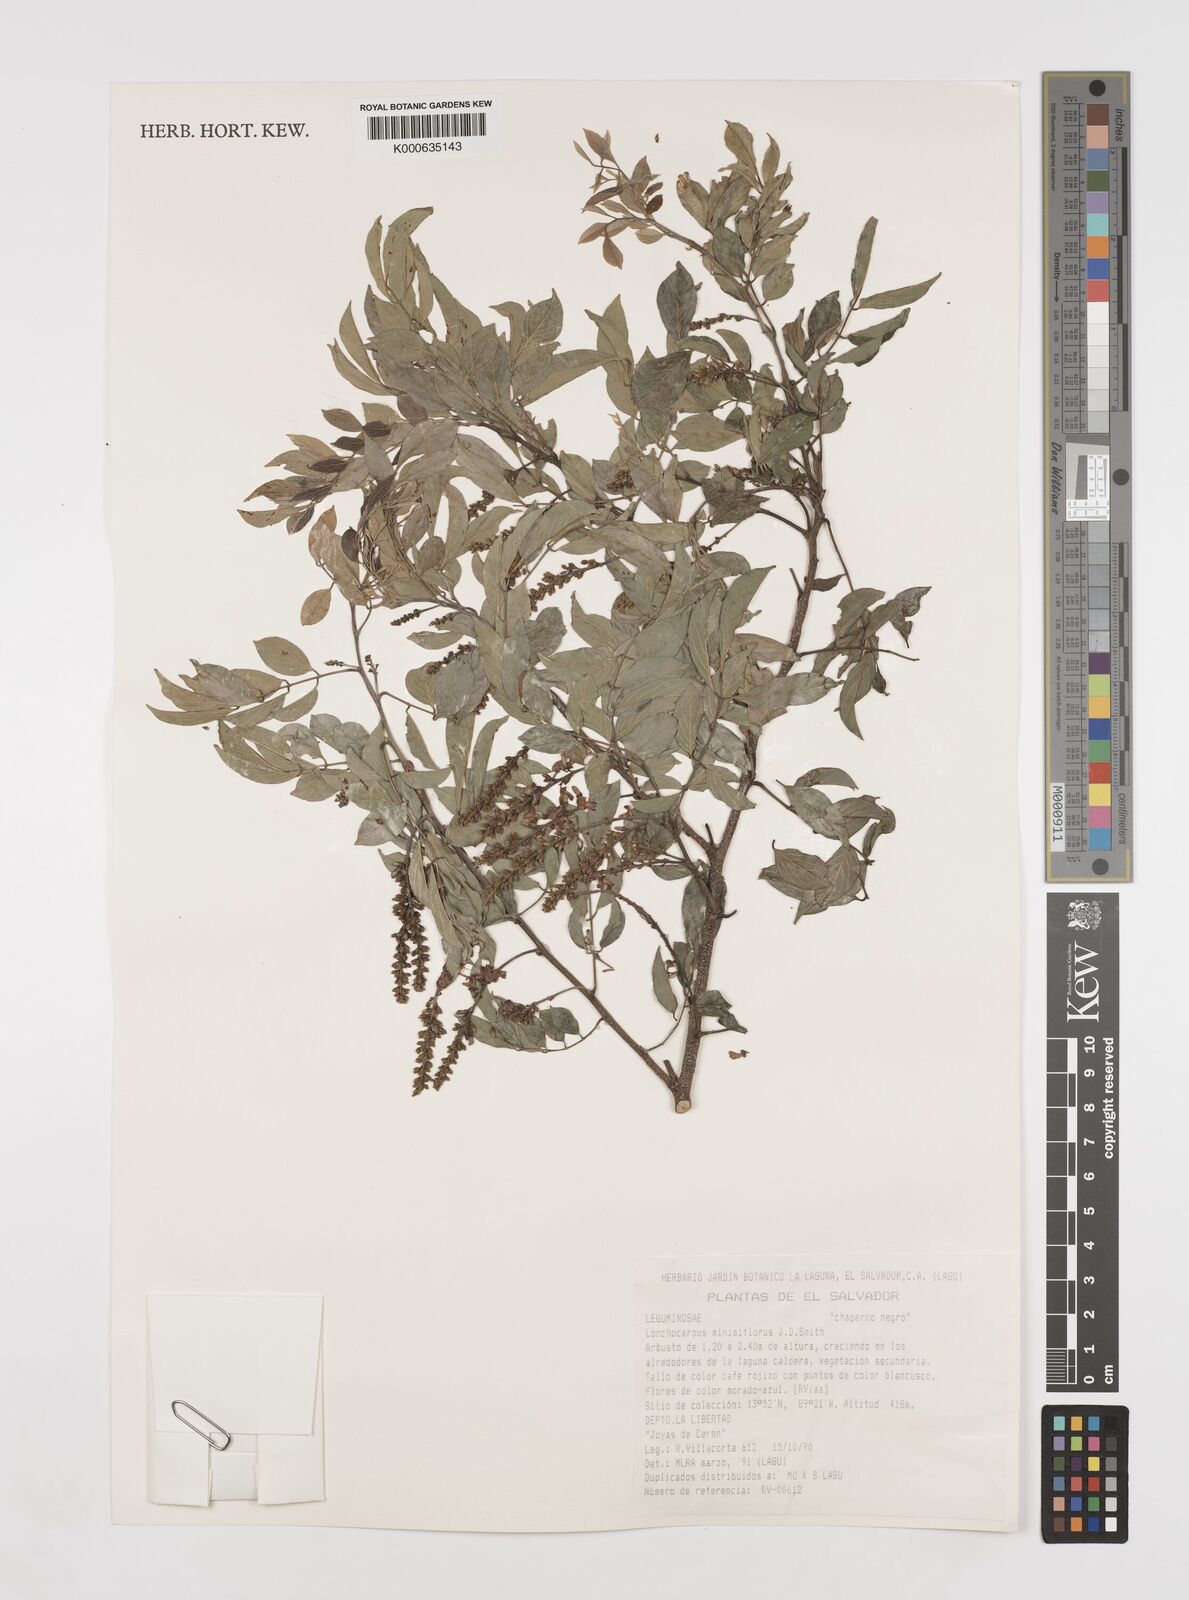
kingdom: Plantae
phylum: Tracheophyta
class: Magnoliopsida
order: Fabales
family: Fabaceae
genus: Lonchocarpus
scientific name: Lonchocarpus
